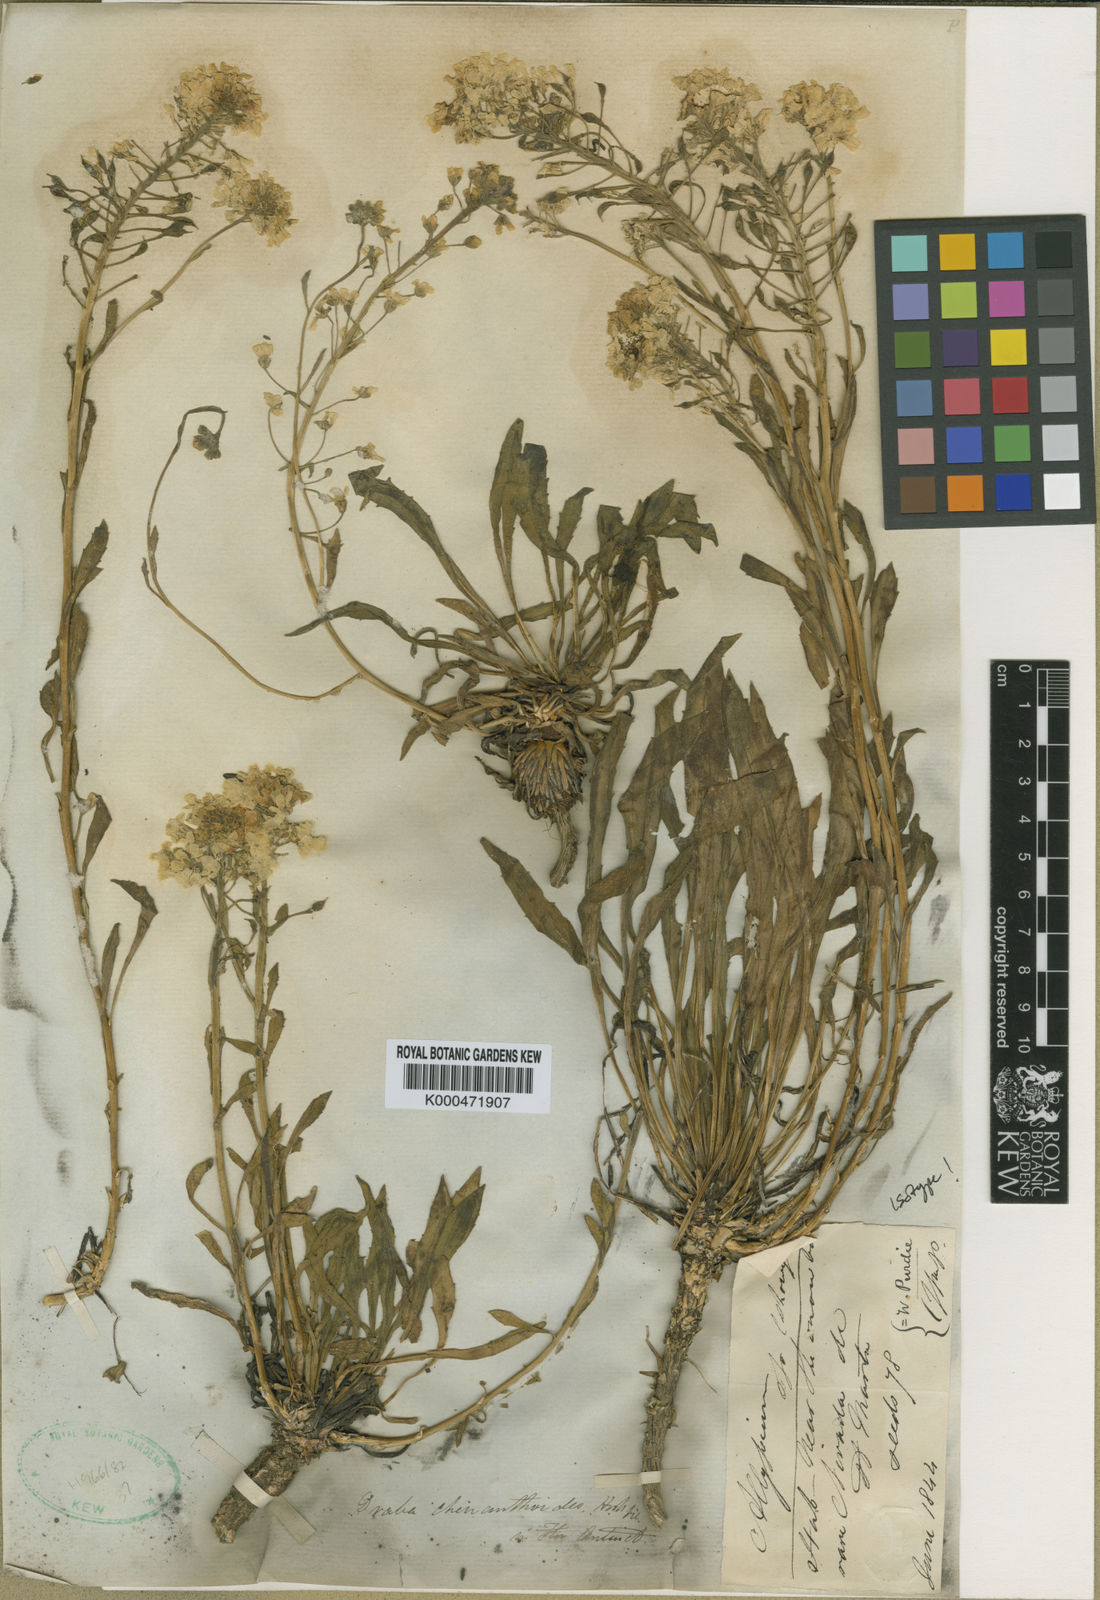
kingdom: Plantae
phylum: Tracheophyta
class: Magnoliopsida
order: Brassicales
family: Brassicaceae
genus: Draba
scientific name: Draba cheiranthoides
